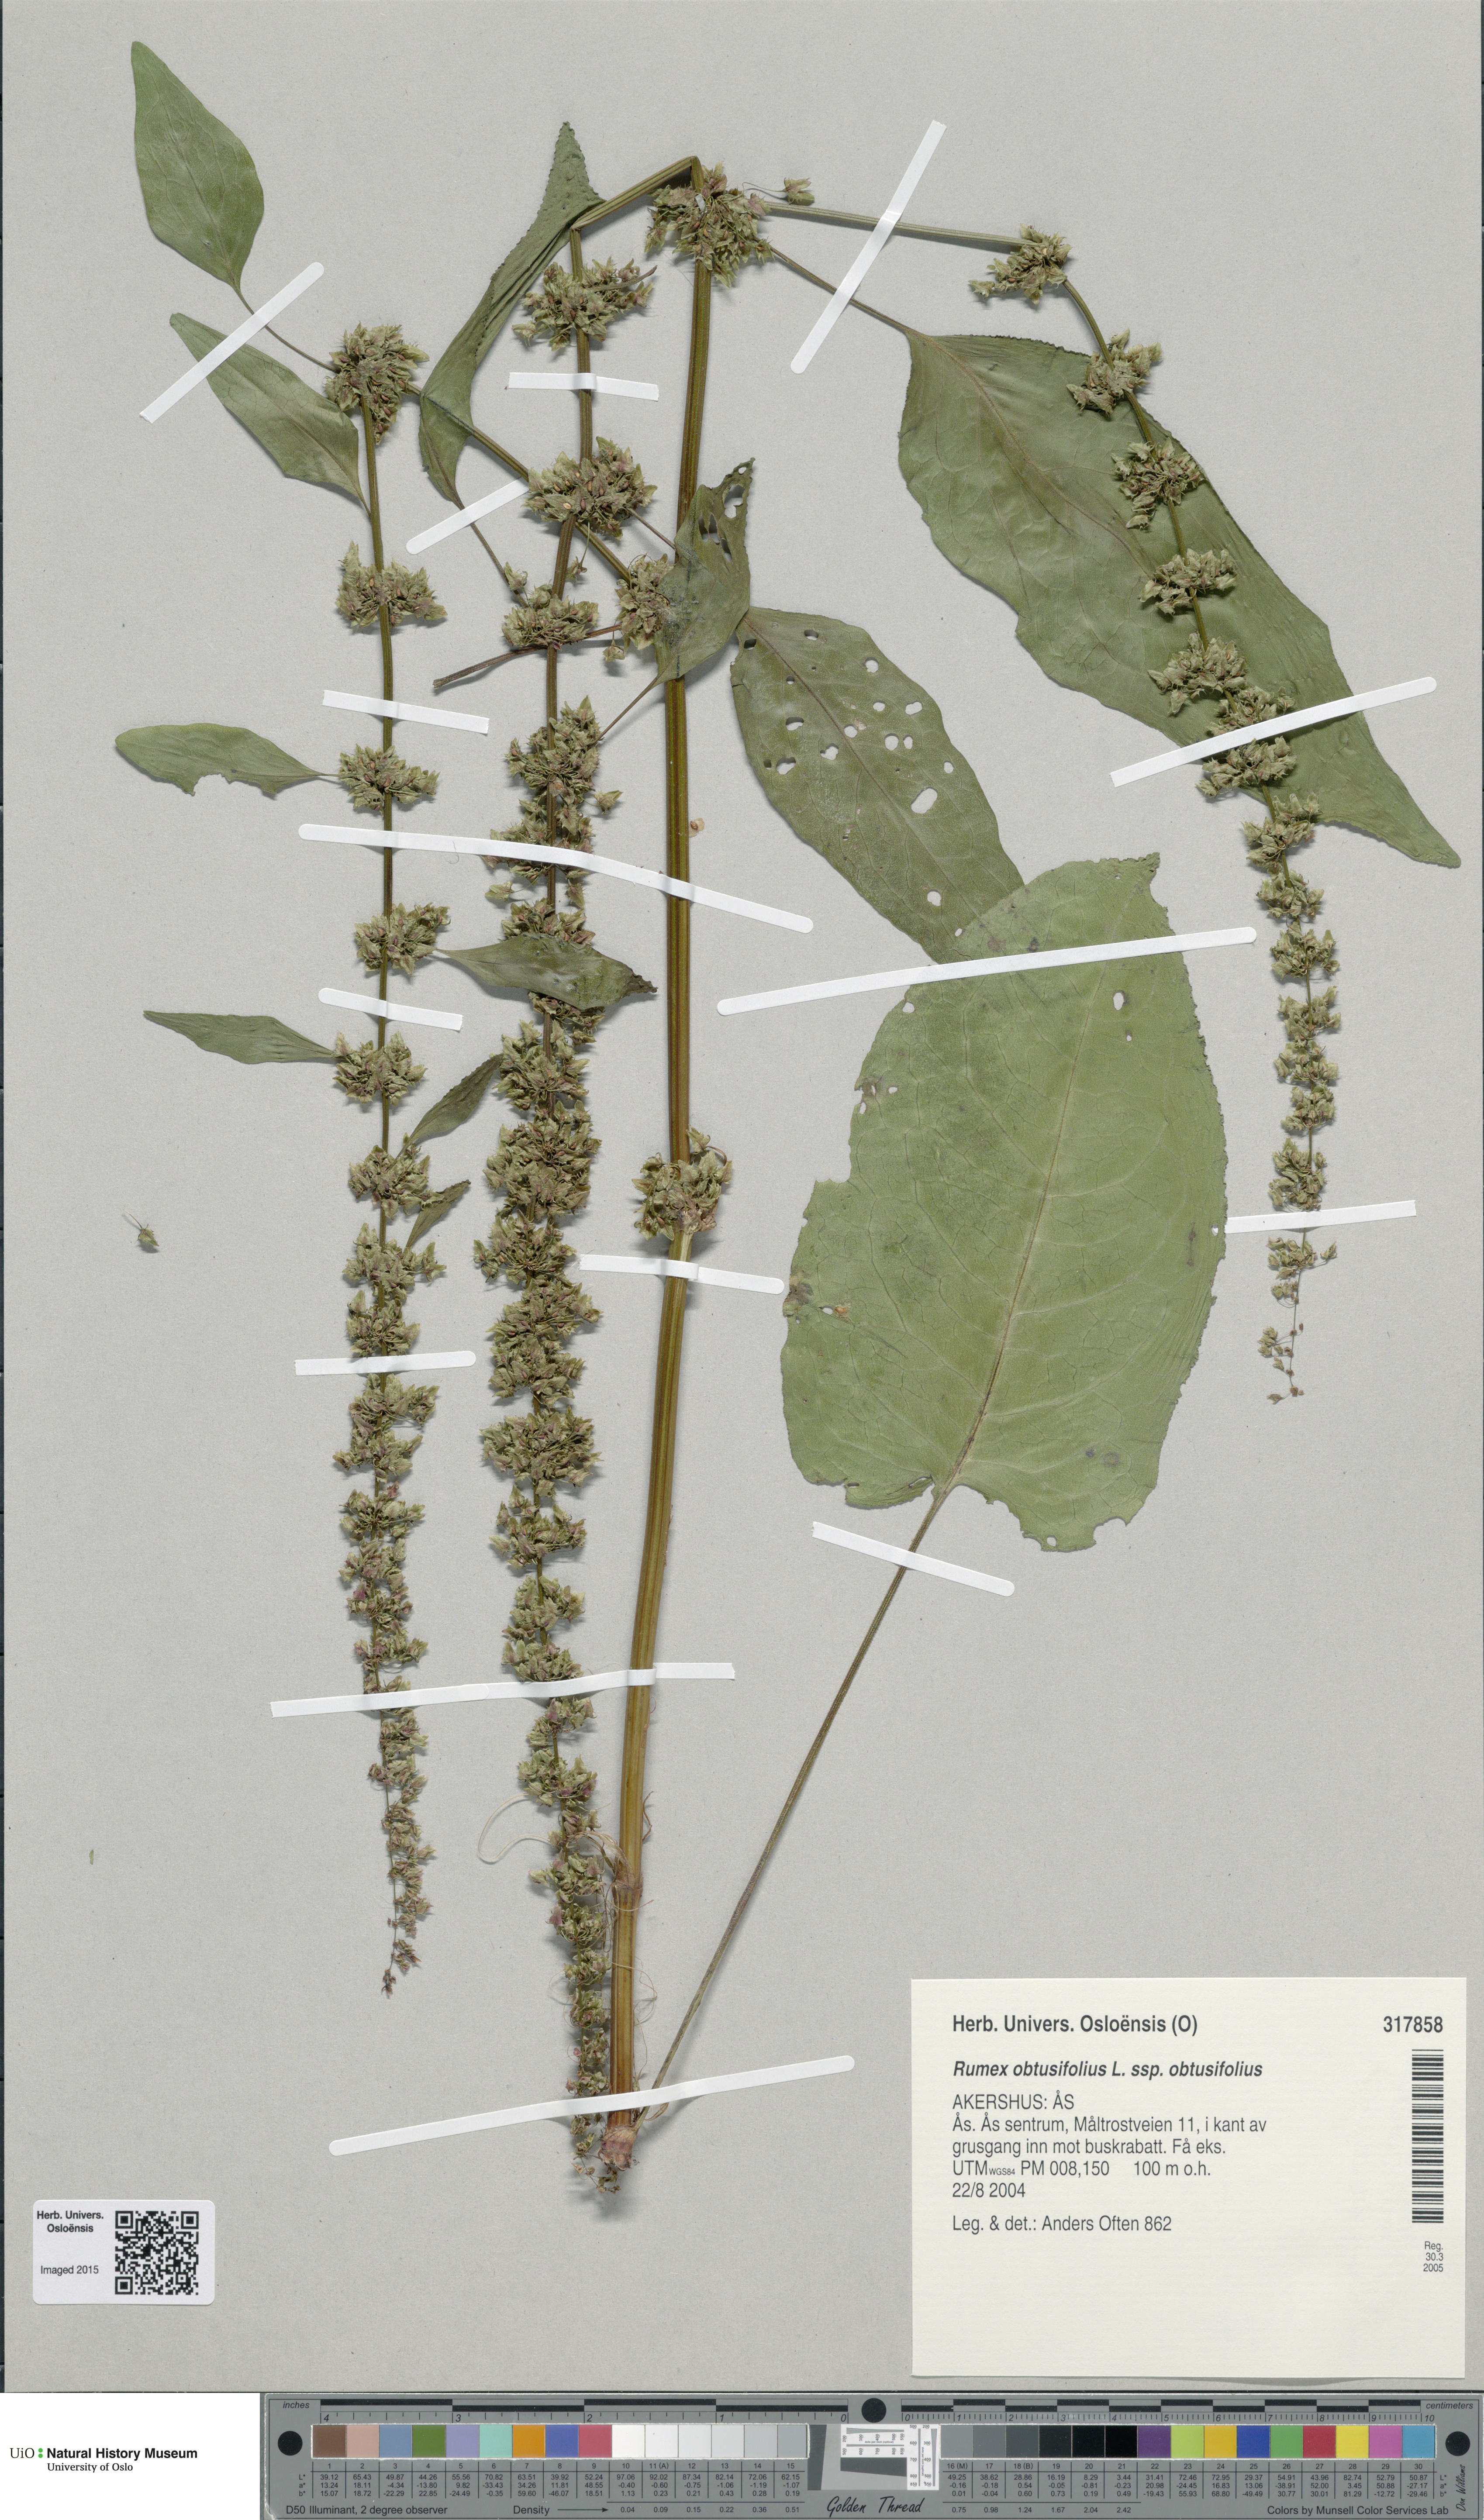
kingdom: Plantae
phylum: Tracheophyta
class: Magnoliopsida
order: Caryophyllales
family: Polygonaceae
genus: Rumex
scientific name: Rumex obtusifolius
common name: Bitter dock
